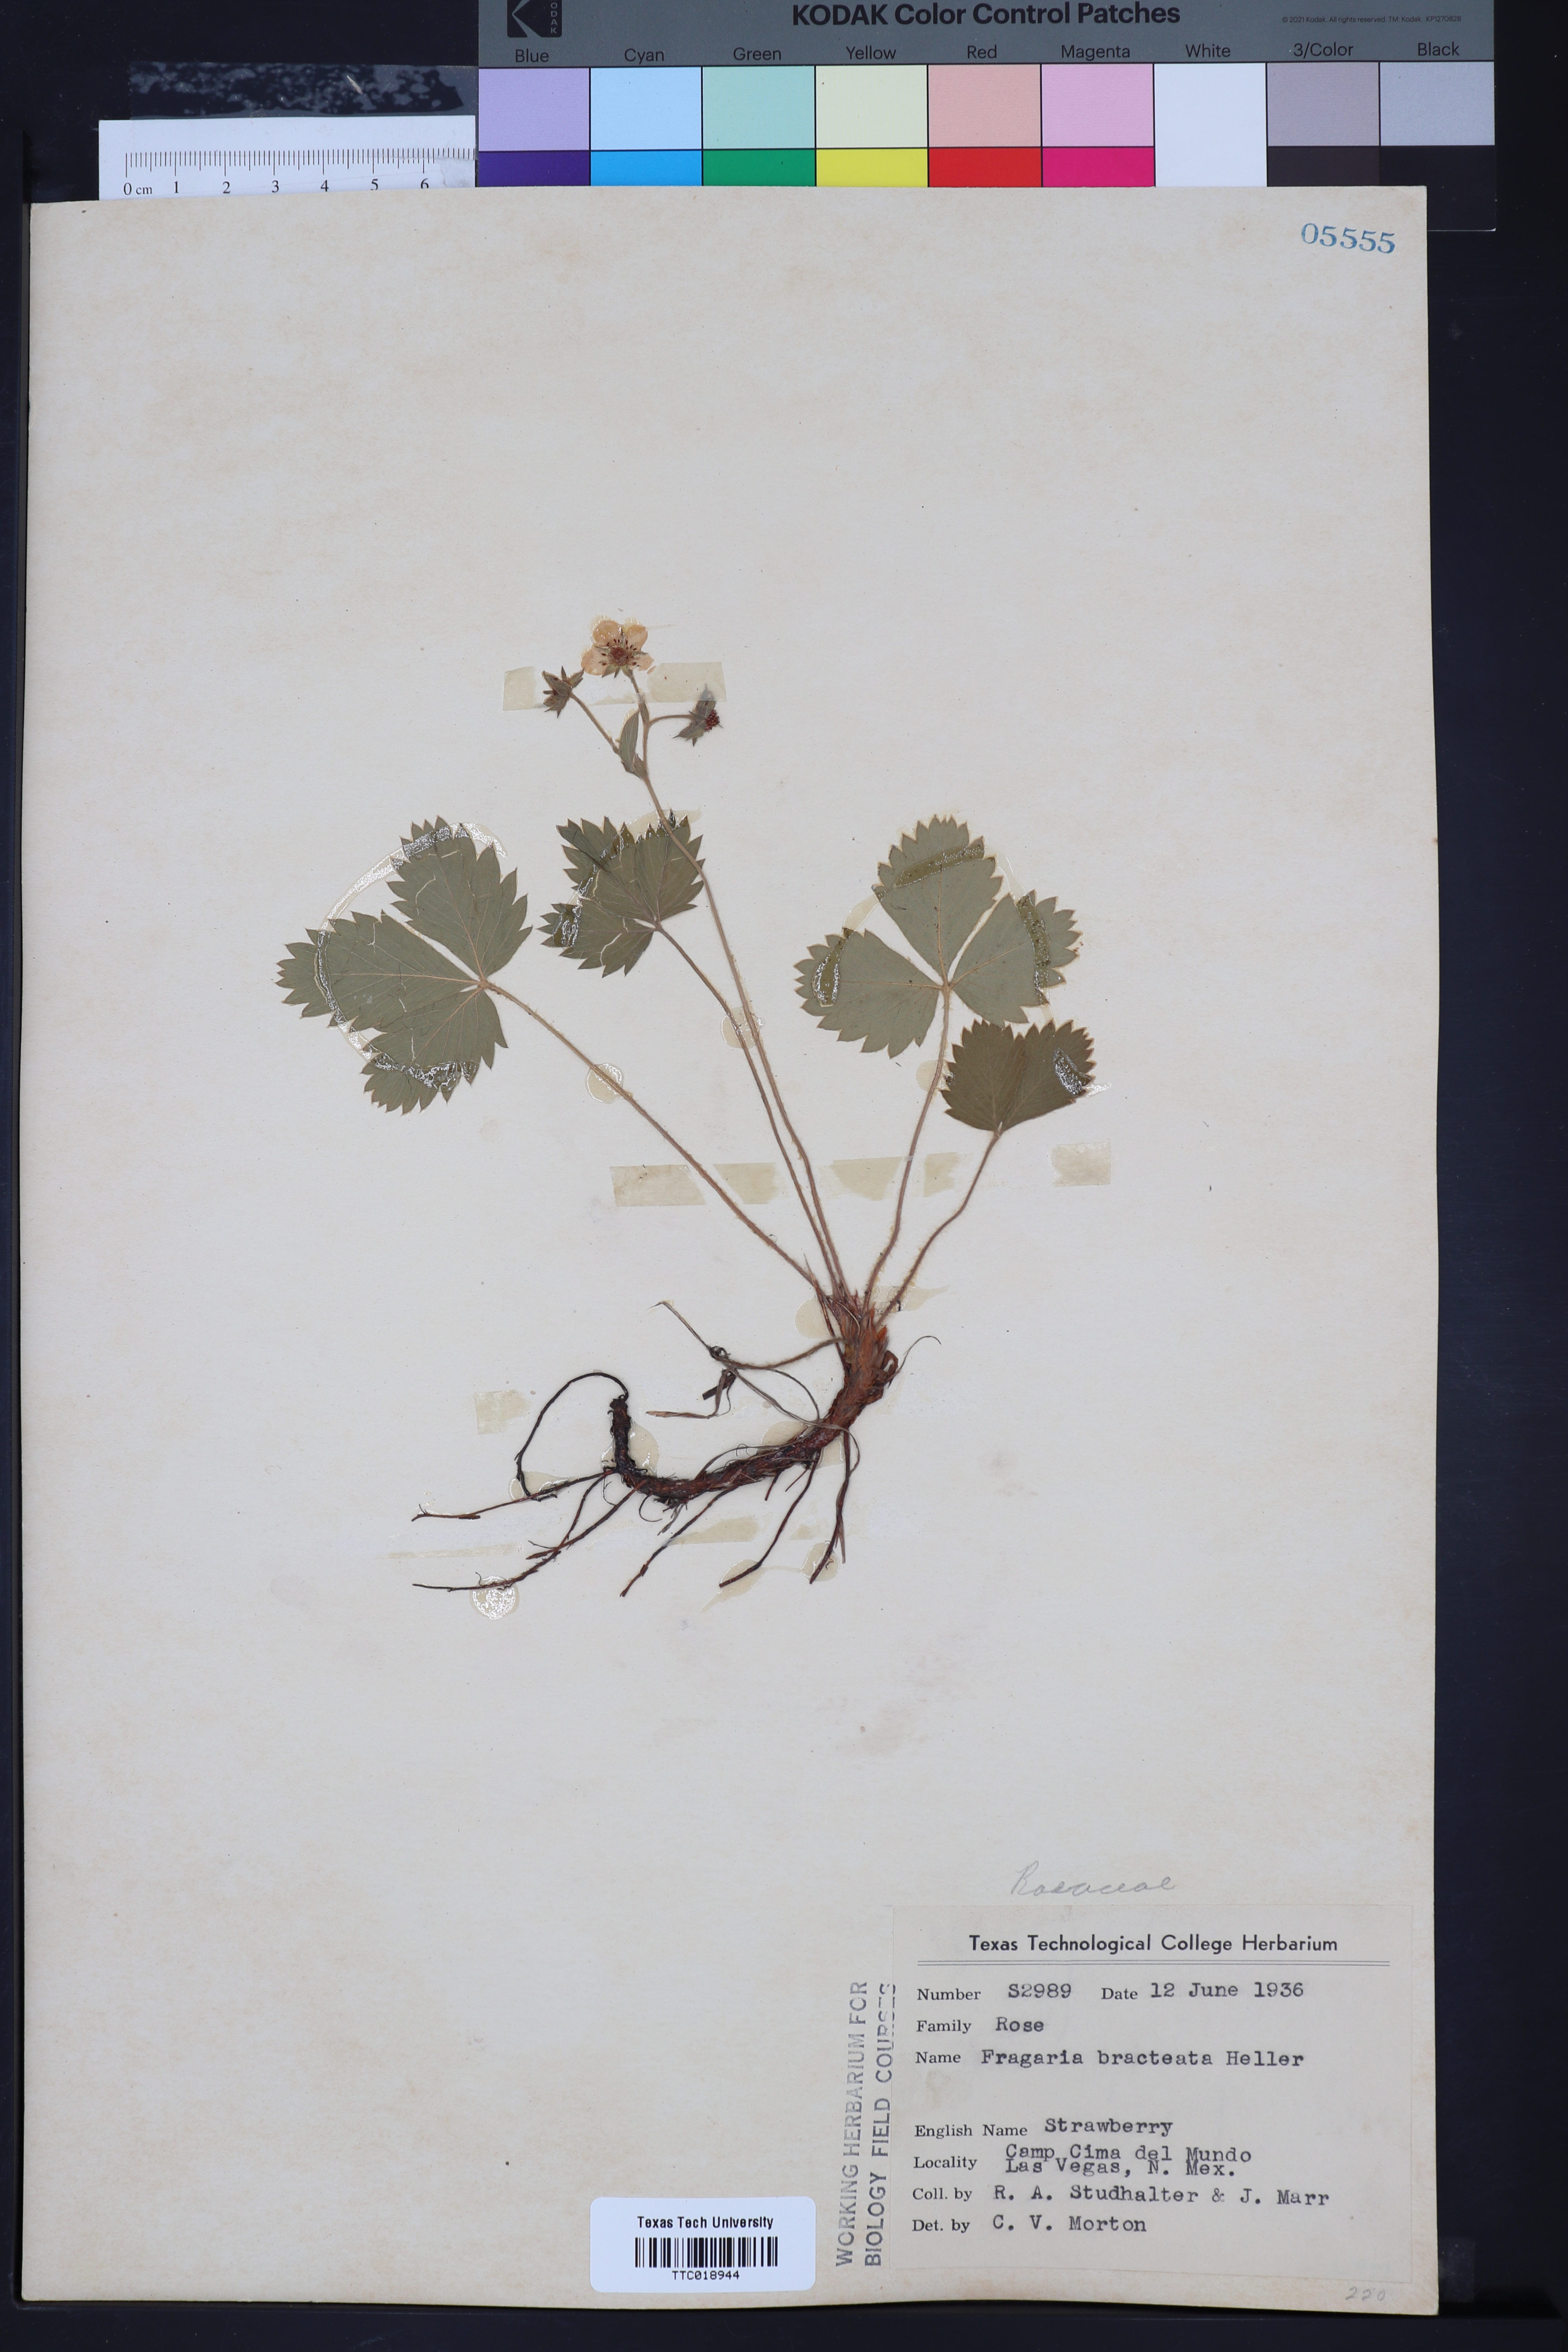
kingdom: Plantae
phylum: Tracheophyta
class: Magnoliopsida
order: Rosales
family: Rosaceae
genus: Fragaria
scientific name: Fragaria vesca
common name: Wild strawberry
